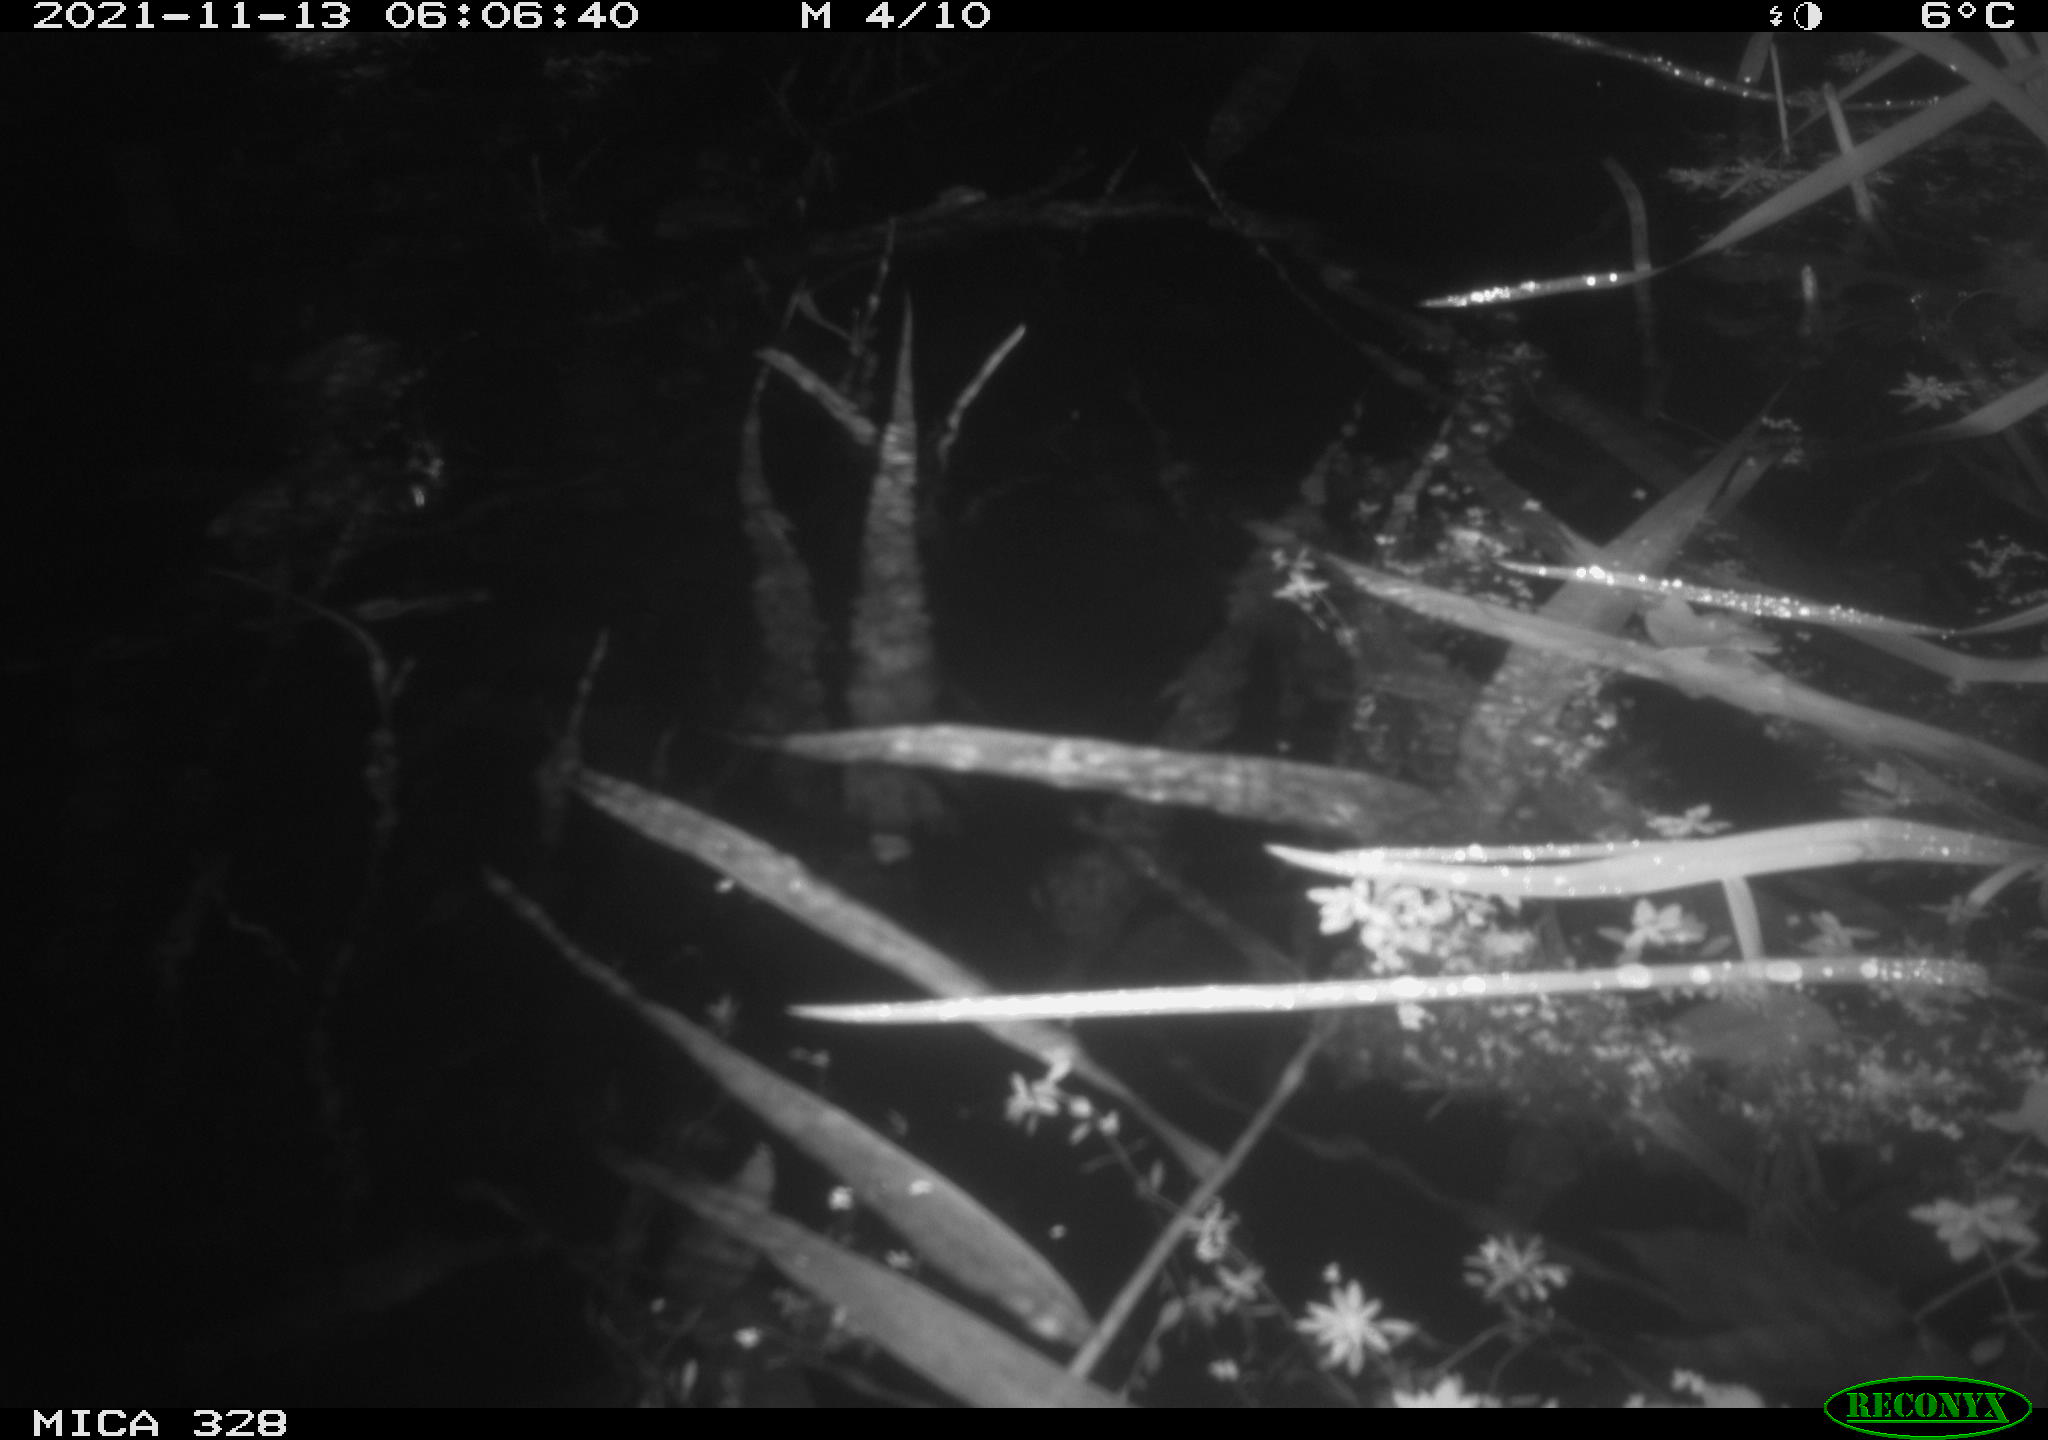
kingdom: Animalia
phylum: Chordata
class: Mammalia
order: Rodentia
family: Cricetidae
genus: Ondatra
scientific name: Ondatra zibethicus
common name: Muskrat
